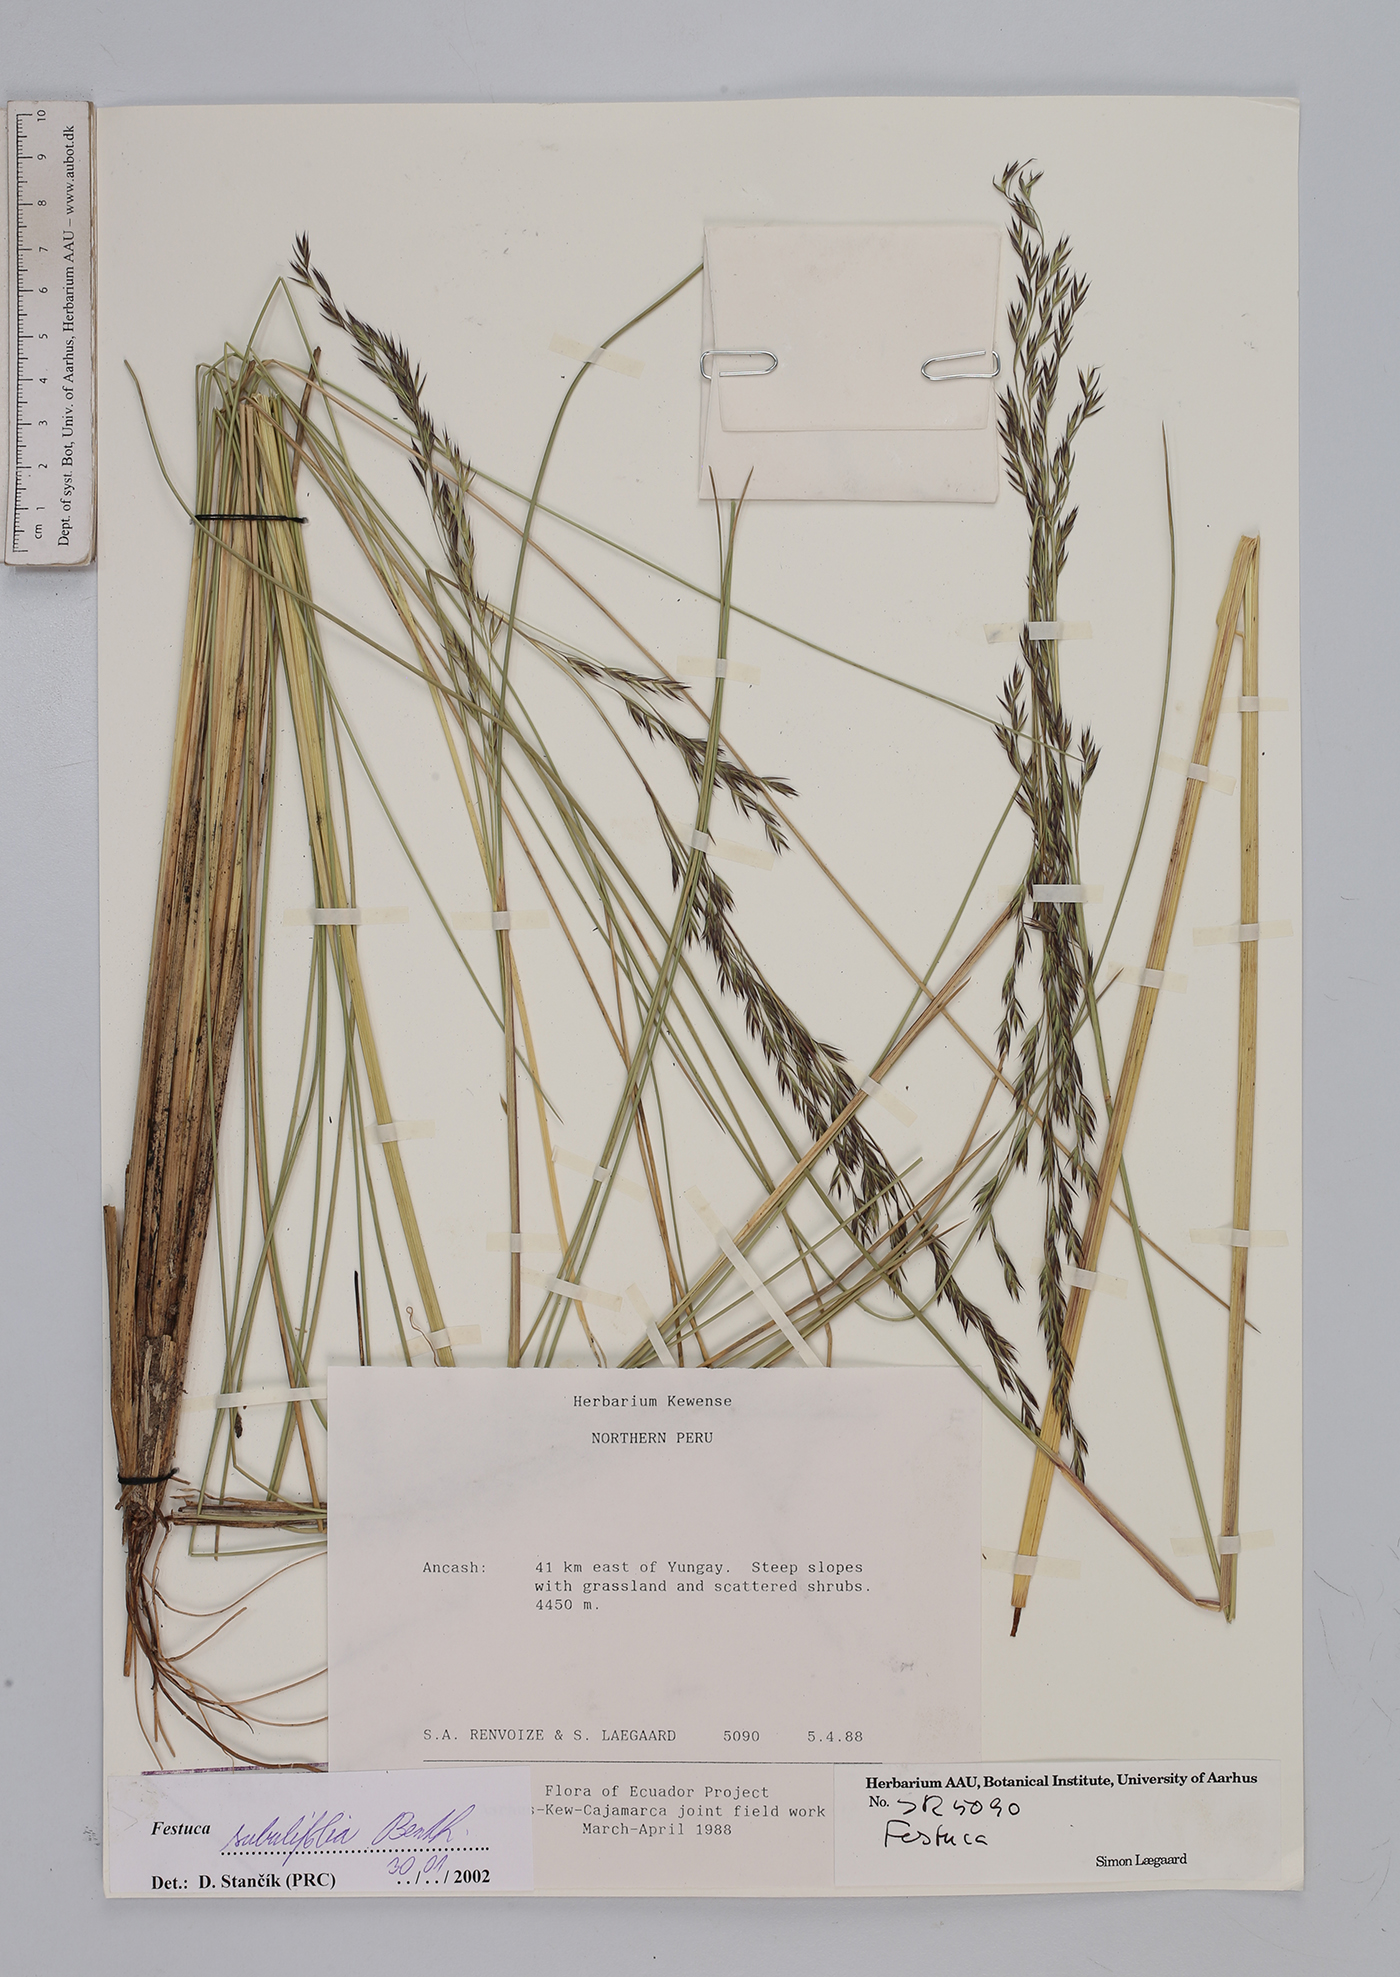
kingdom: Plantae
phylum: Tracheophyta
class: Liliopsida
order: Poales
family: Poaceae
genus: Festuca
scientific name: Festuca subulifolia
